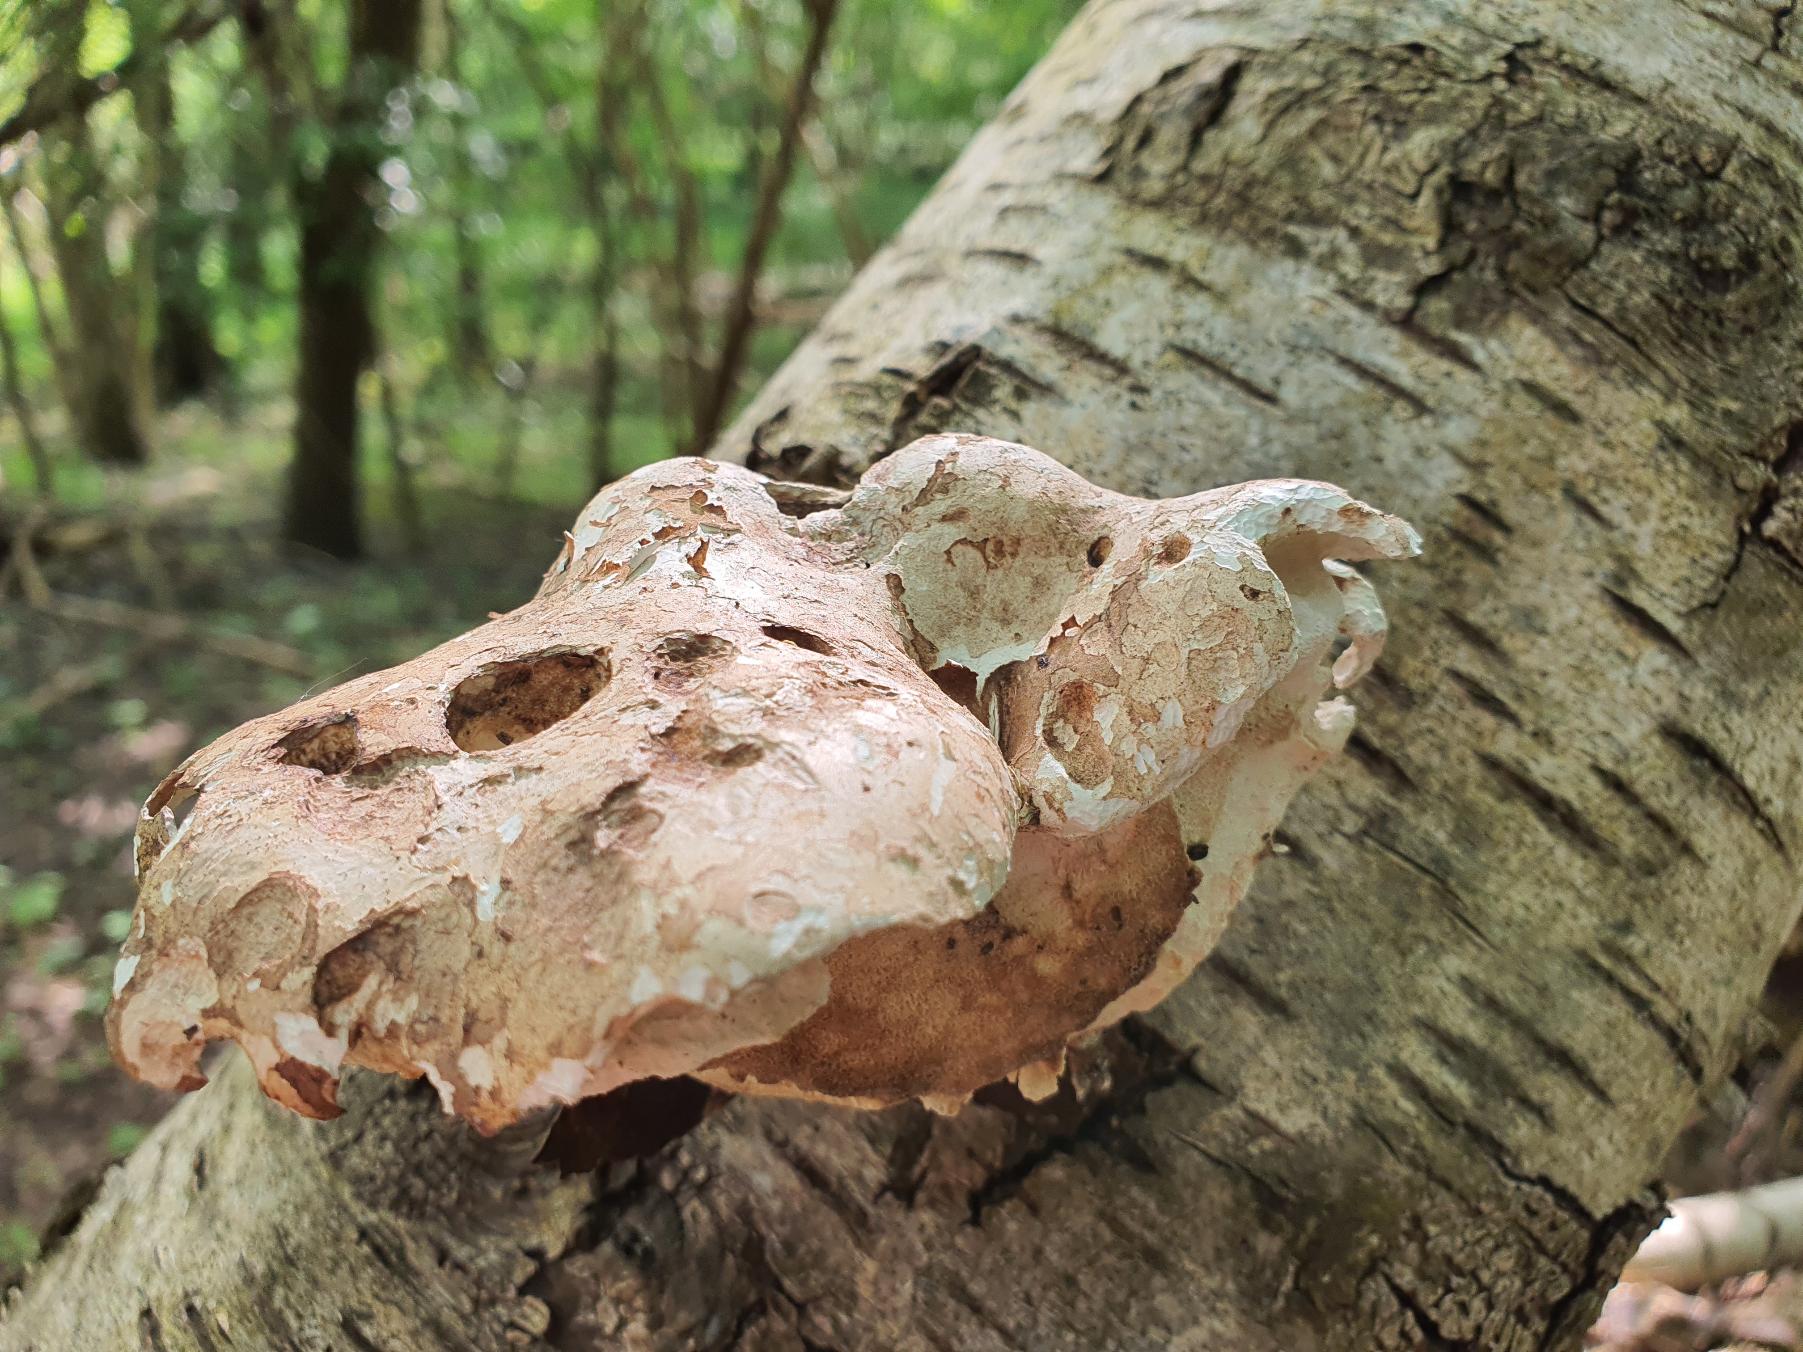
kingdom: Fungi
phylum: Basidiomycota
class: Agaricomycetes
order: Polyporales
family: Fomitopsidaceae
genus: Fomitopsis
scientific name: Fomitopsis betulina
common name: Birkeporesvamp
